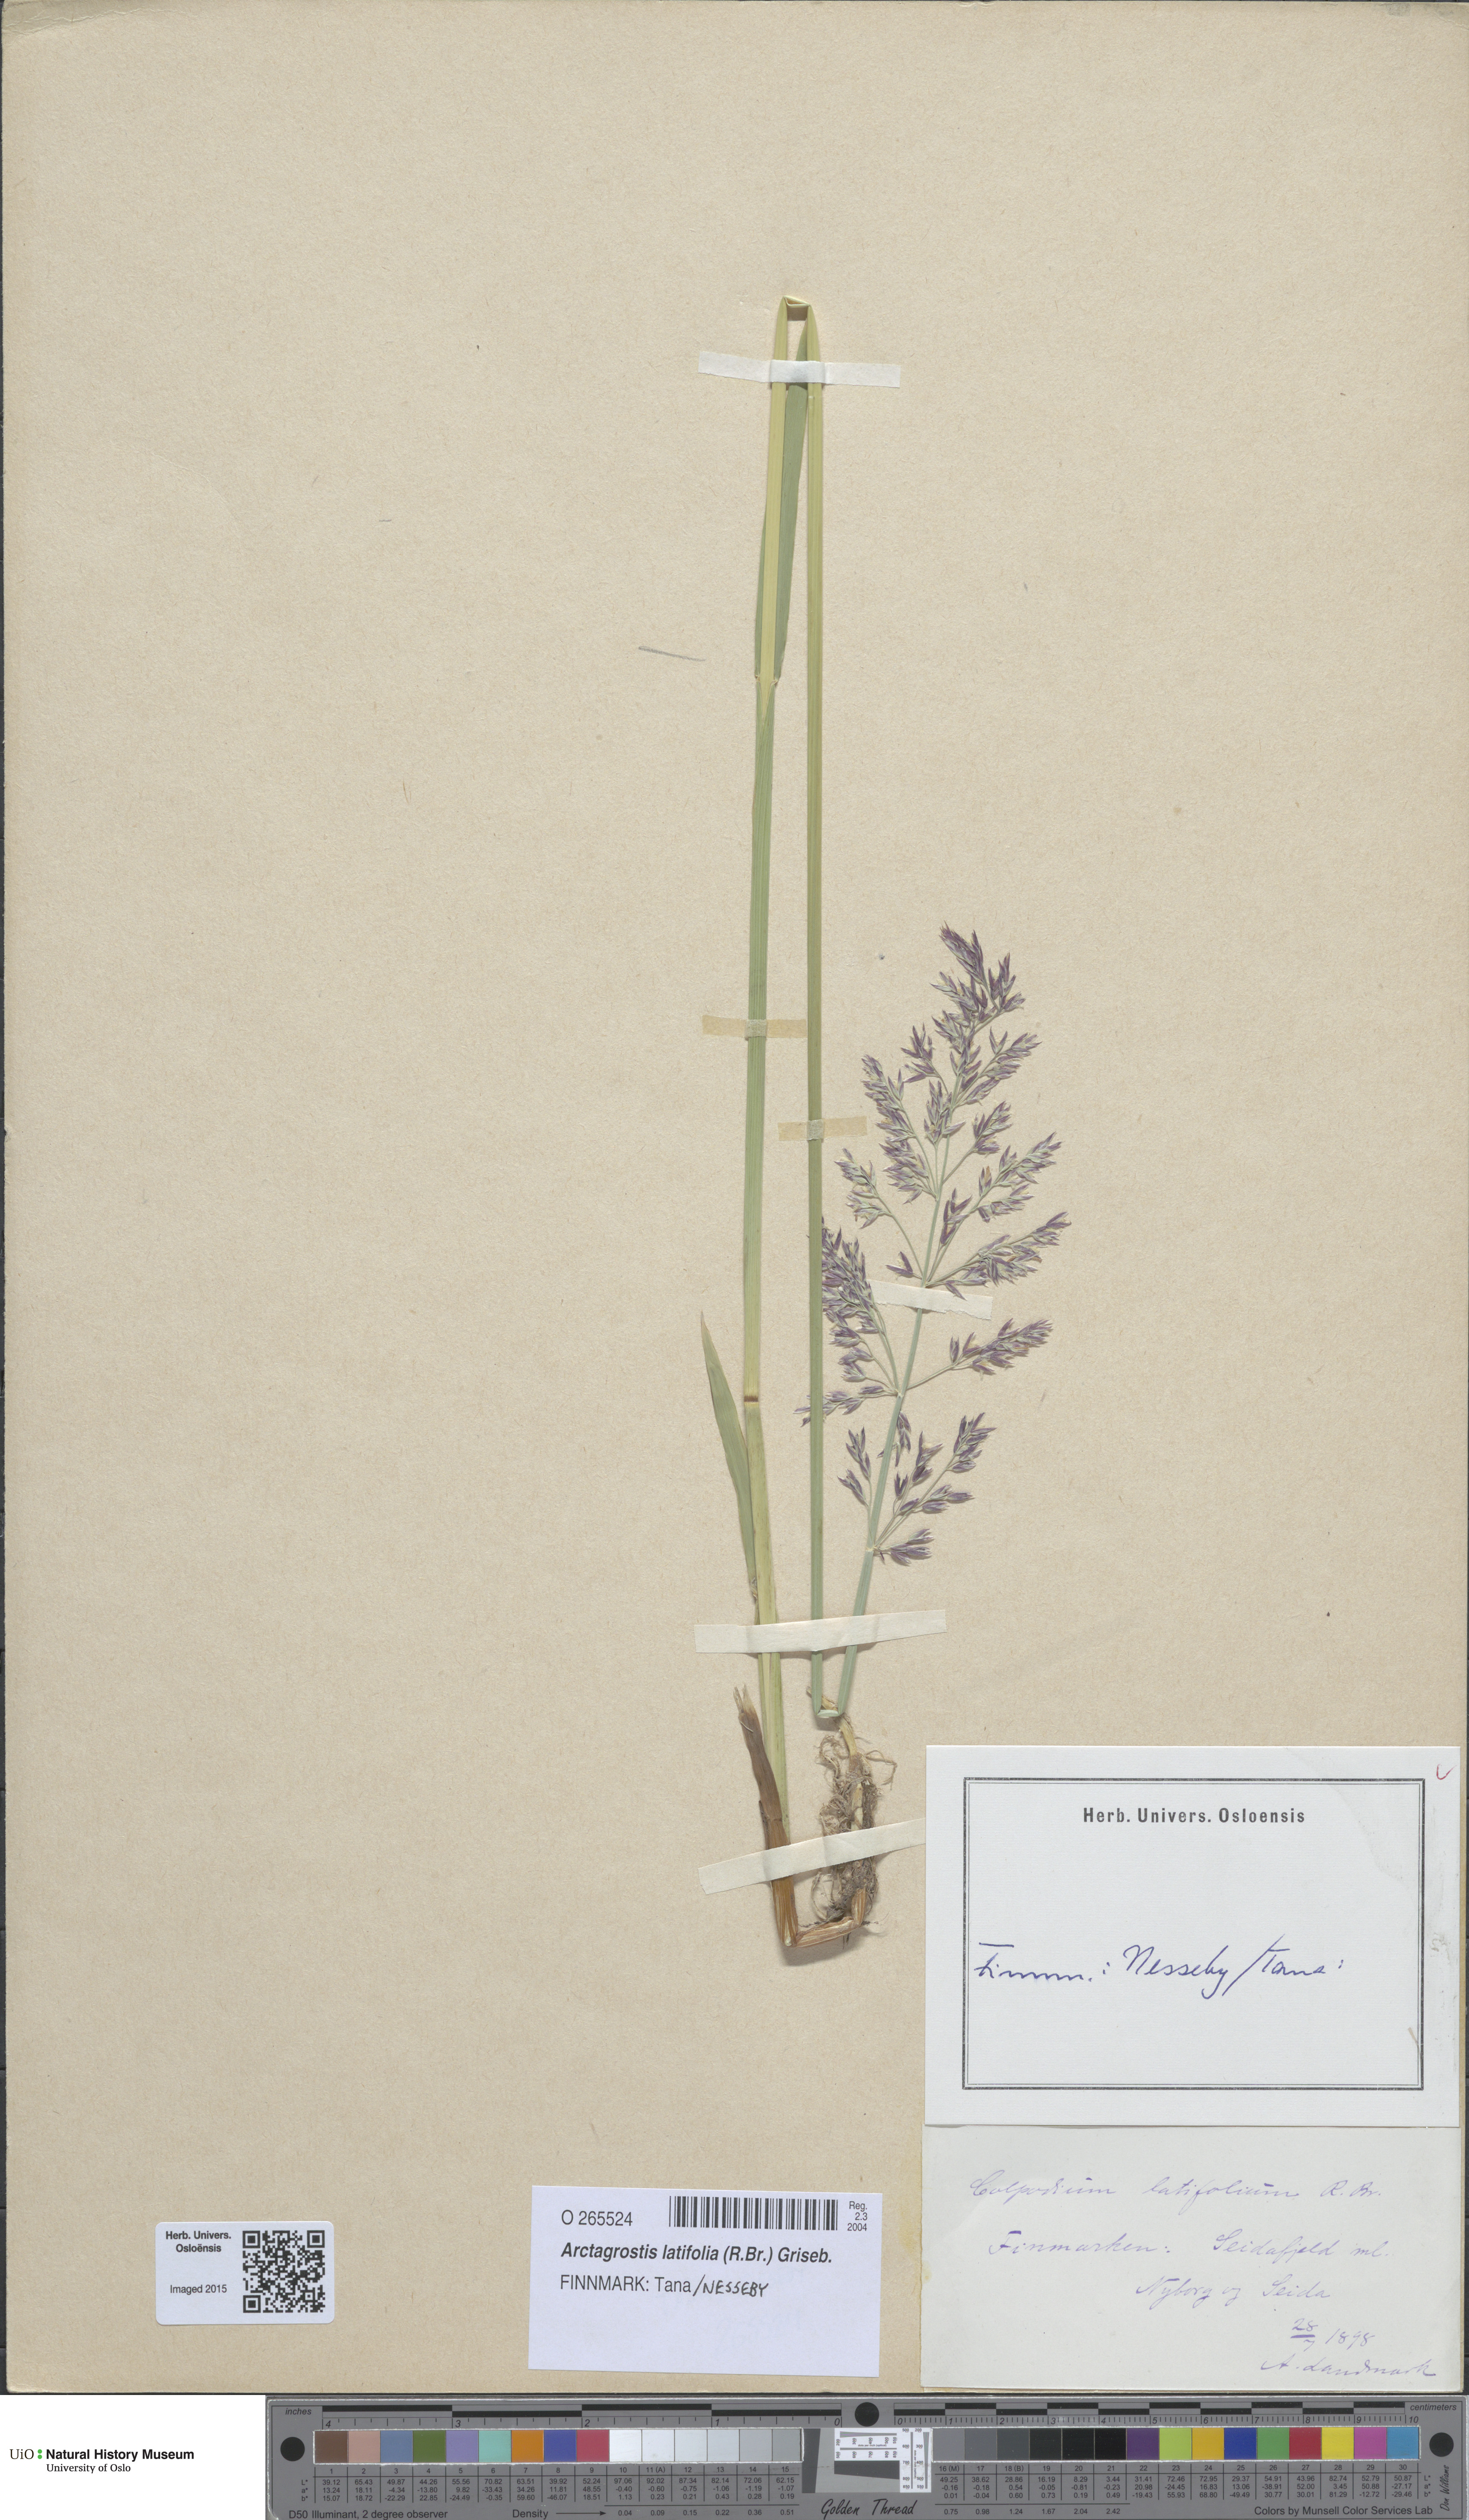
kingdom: Plantae
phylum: Tracheophyta
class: Liliopsida
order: Poales
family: Poaceae
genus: Arctagrostis
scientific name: Arctagrostis latifolia
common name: Arctic grass
